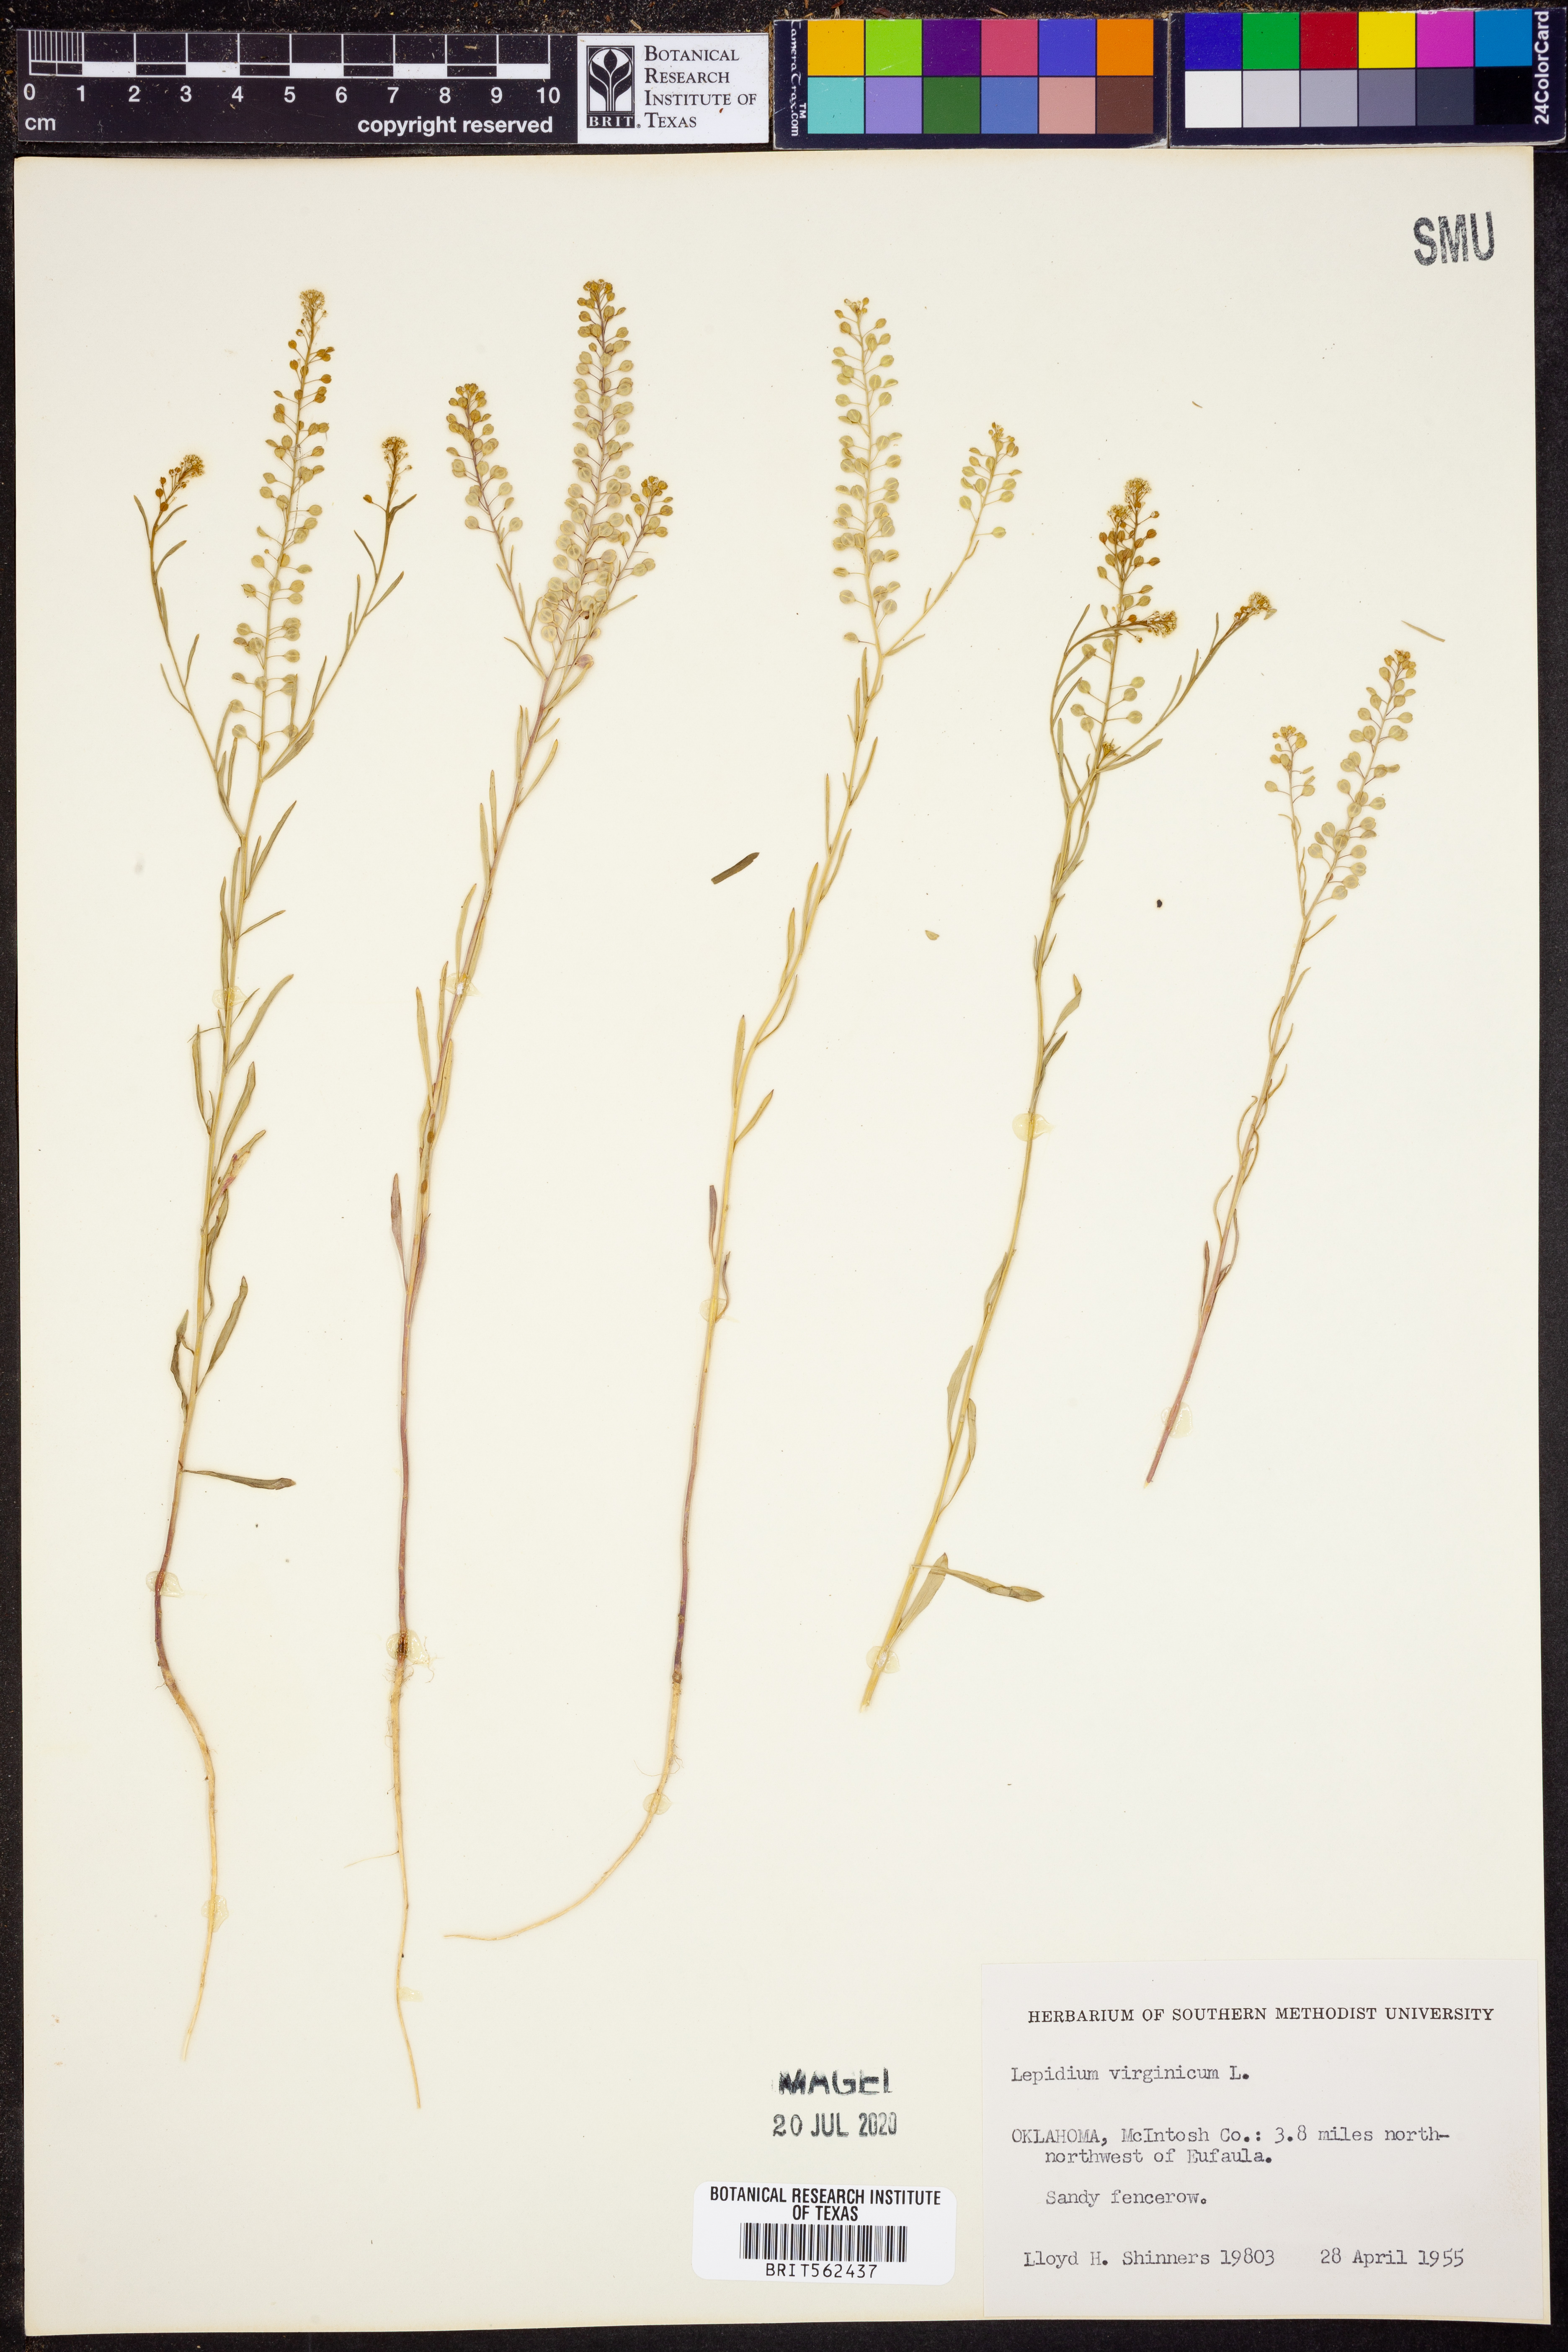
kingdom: Plantae
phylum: Tracheophyta
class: Magnoliopsida
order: Brassicales
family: Brassicaceae
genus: Lepidium
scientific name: Lepidium virginicum
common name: Least pepperwort
